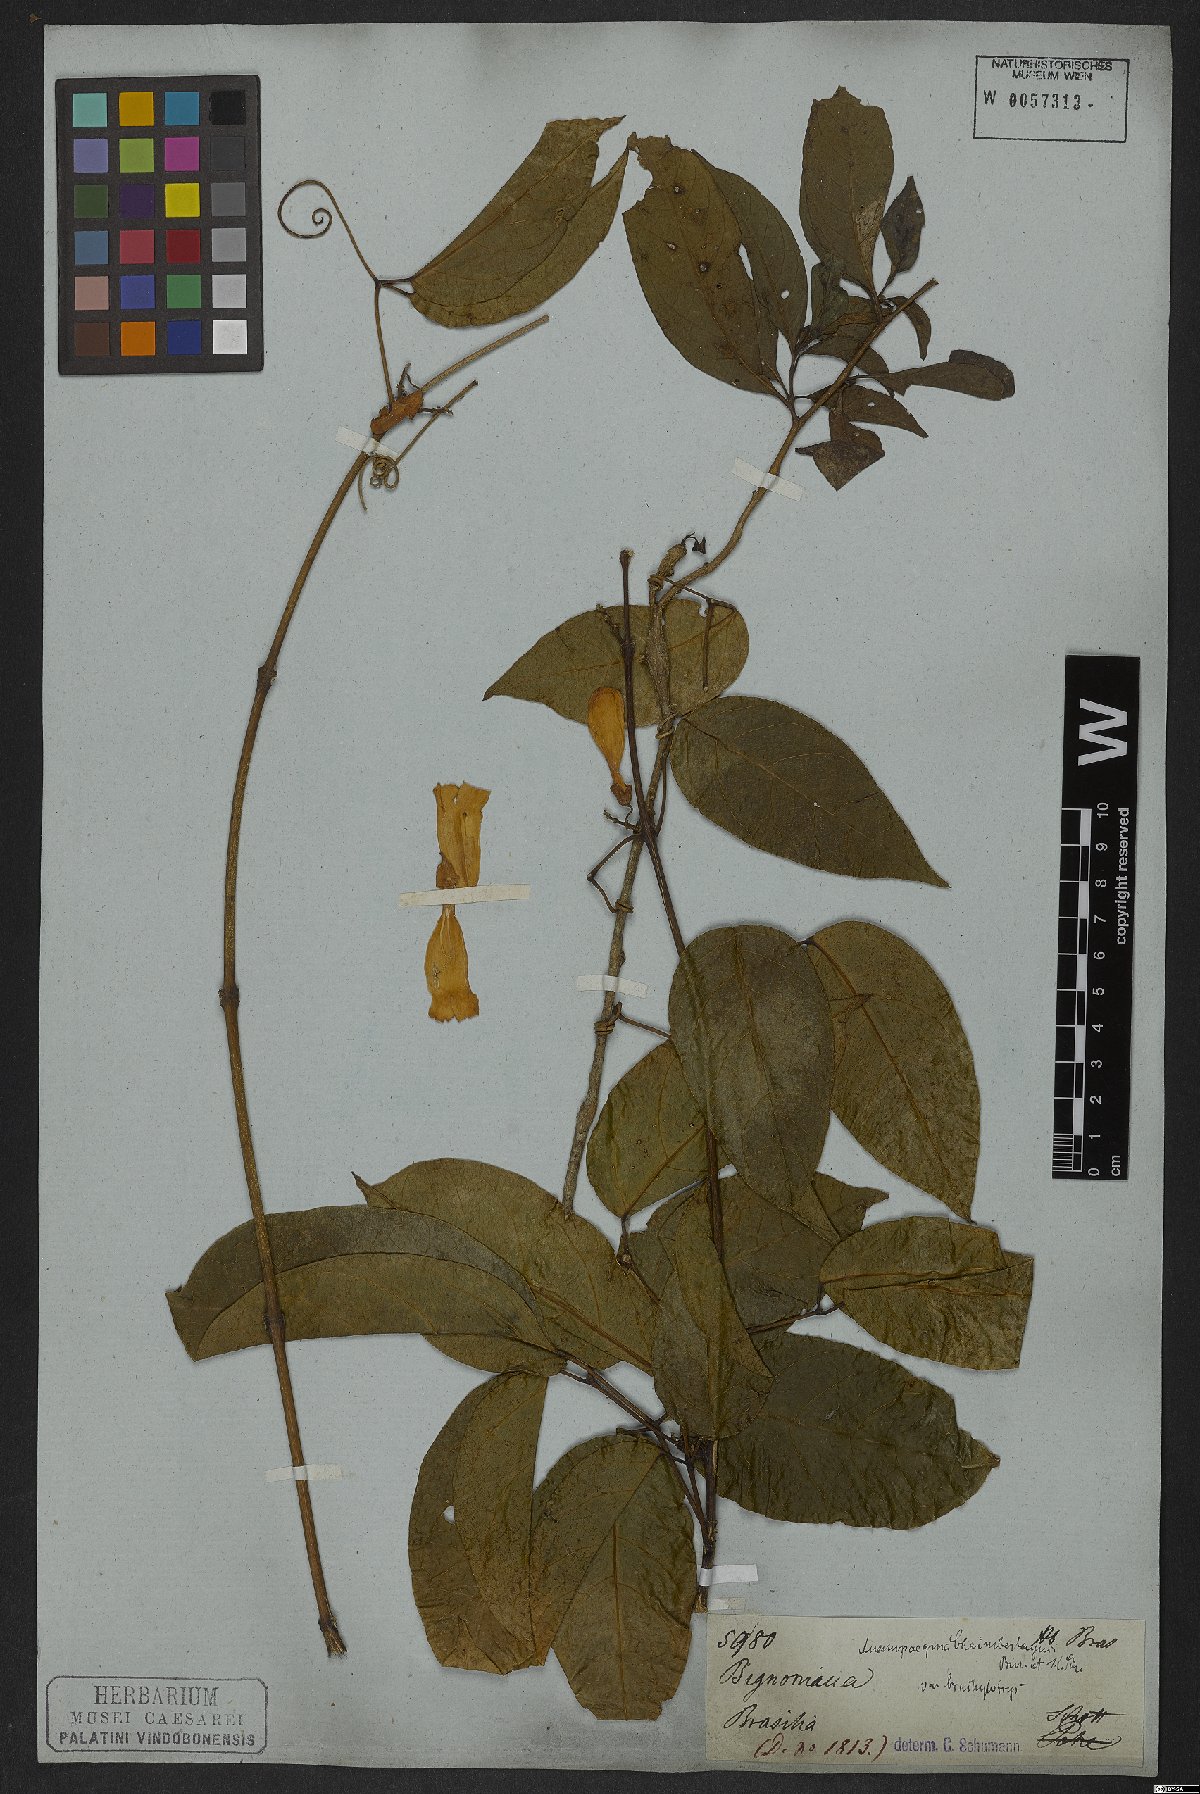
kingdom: Plantae
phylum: Tracheophyta
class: Magnoliopsida
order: Lamiales
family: Bignoniaceae
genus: Anemopaegma
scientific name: Anemopaegma chamberlaynii
